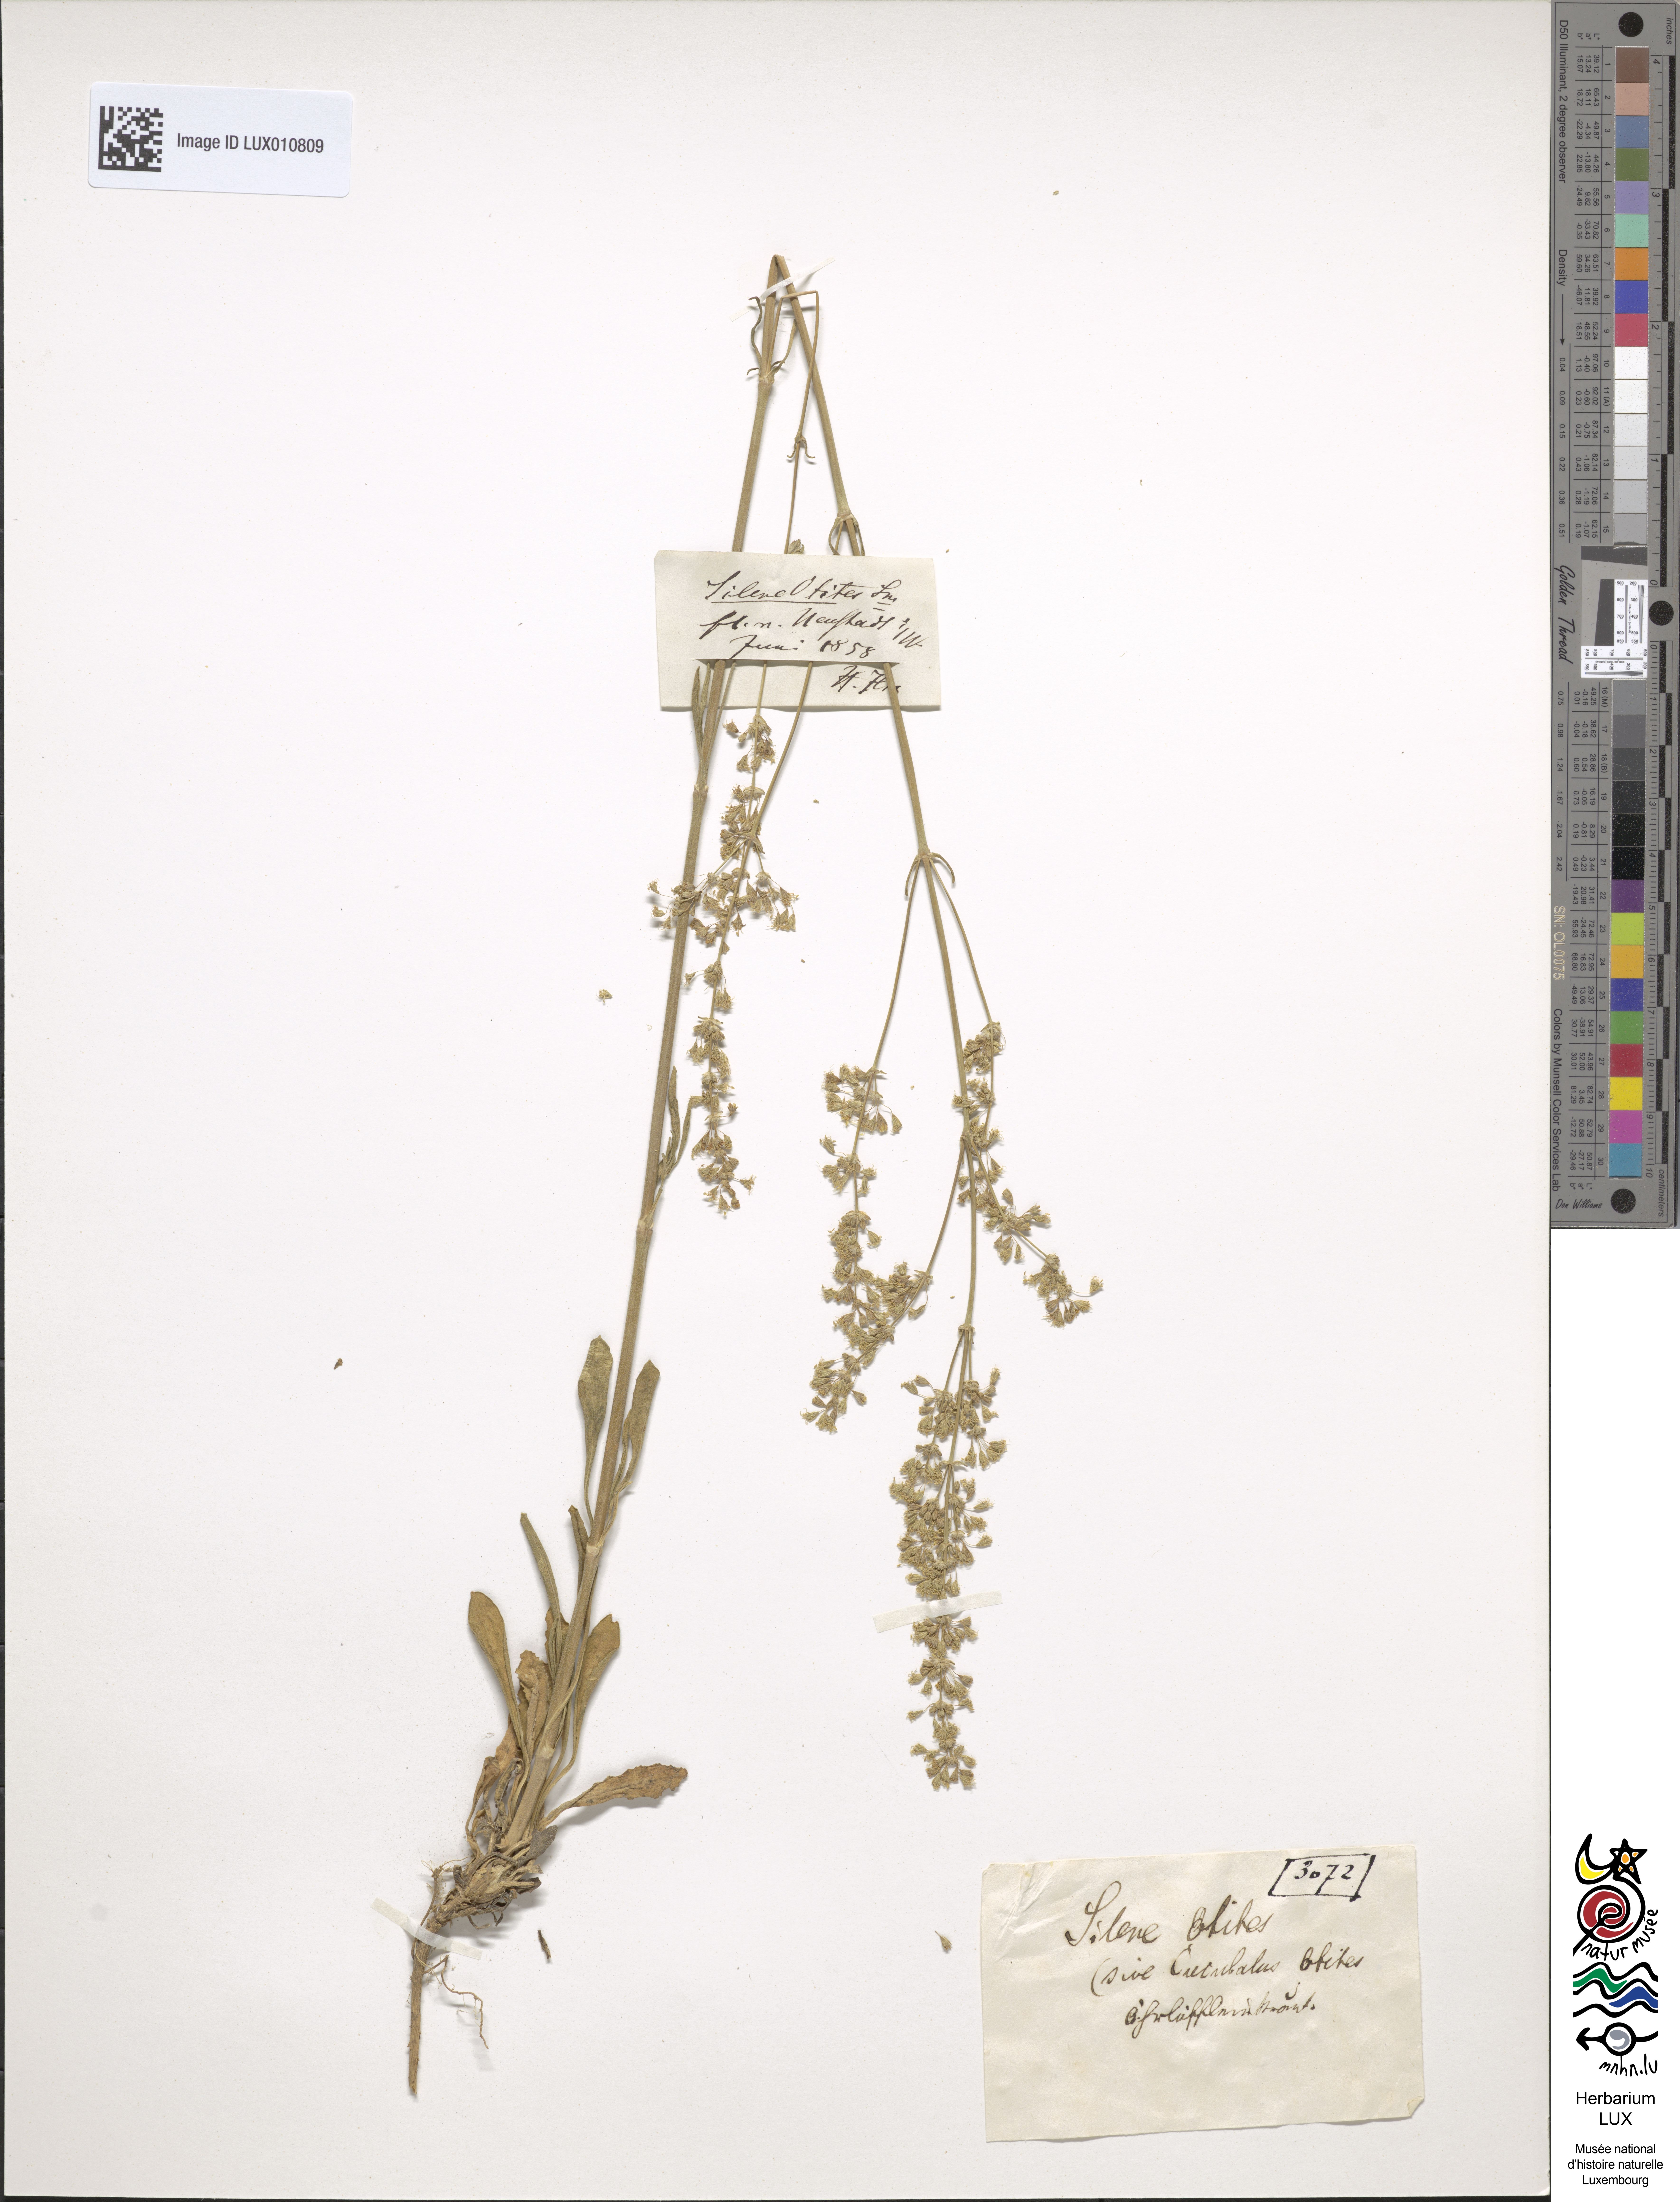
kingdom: Plantae
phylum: Tracheophyta
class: Magnoliopsida
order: Caryophyllales
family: Caryophyllaceae
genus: Silene
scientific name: Silene otites
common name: Spanish catchfly
